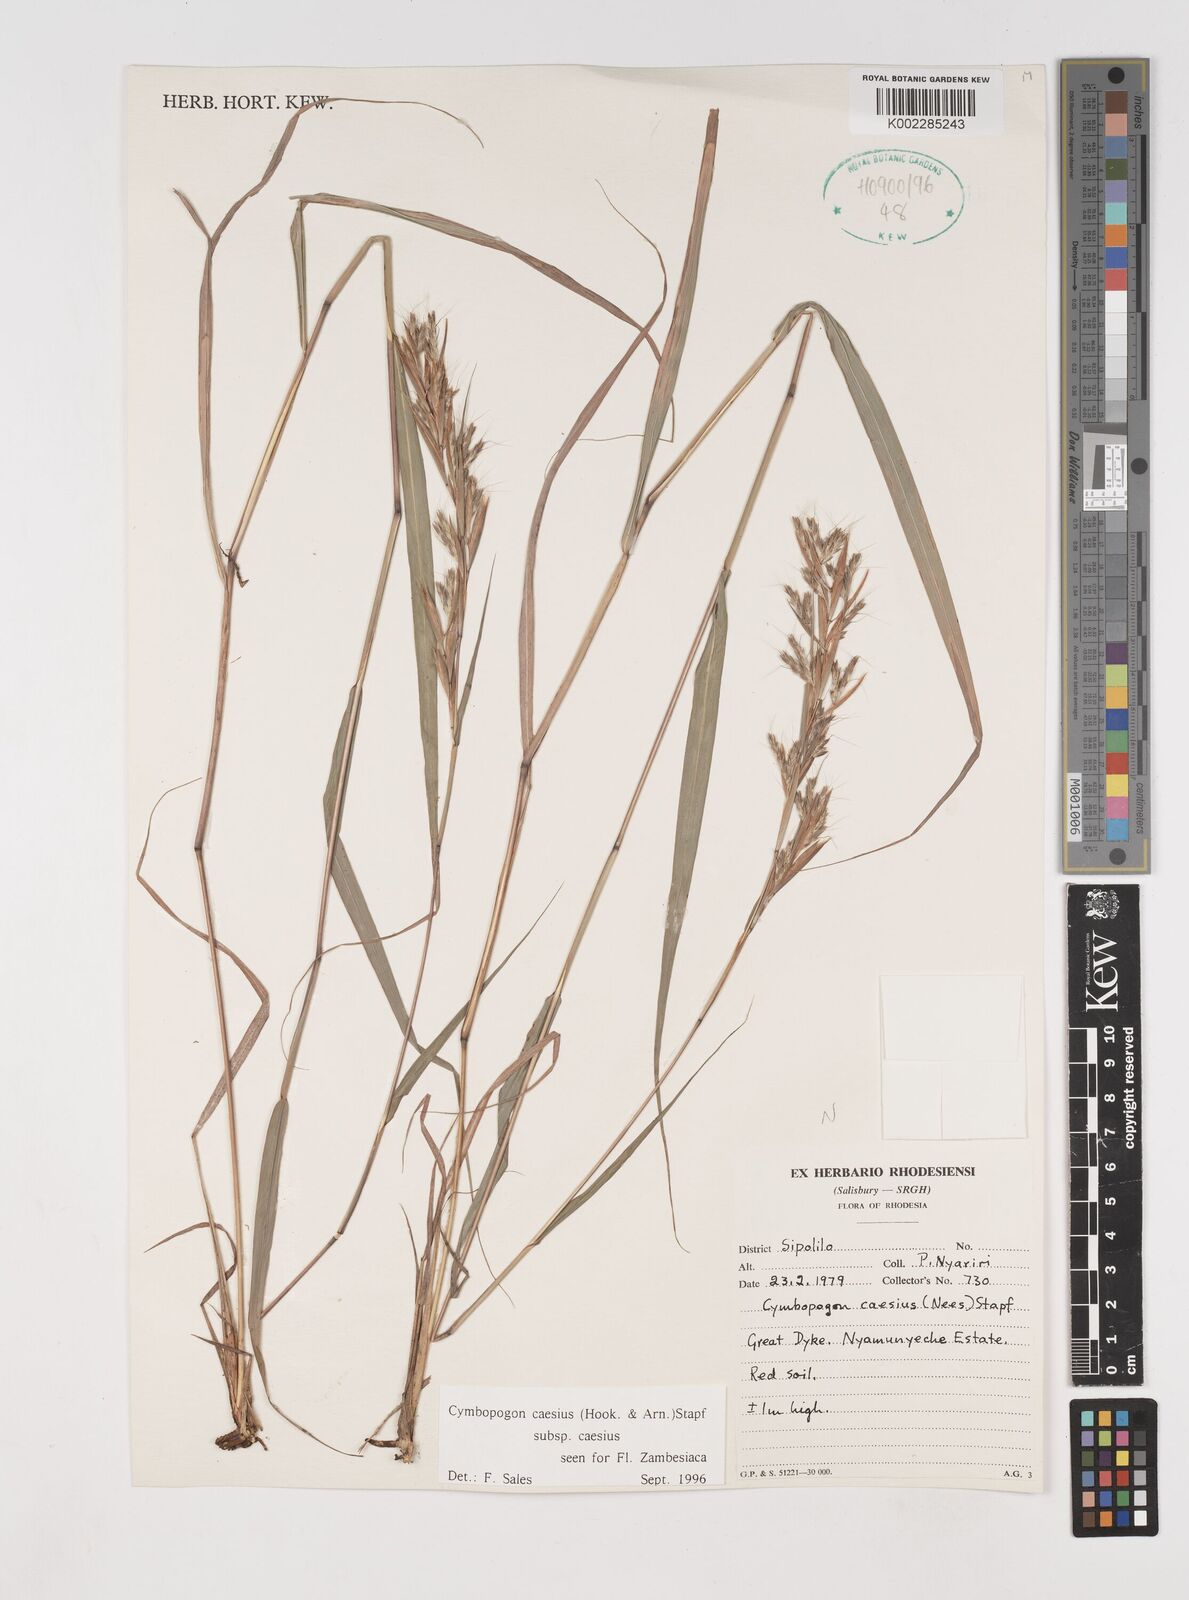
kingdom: Plantae
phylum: Tracheophyta
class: Liliopsida
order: Poales
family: Poaceae
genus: Cymbopogon
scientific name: Cymbopogon caesius
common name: Kachi grass
